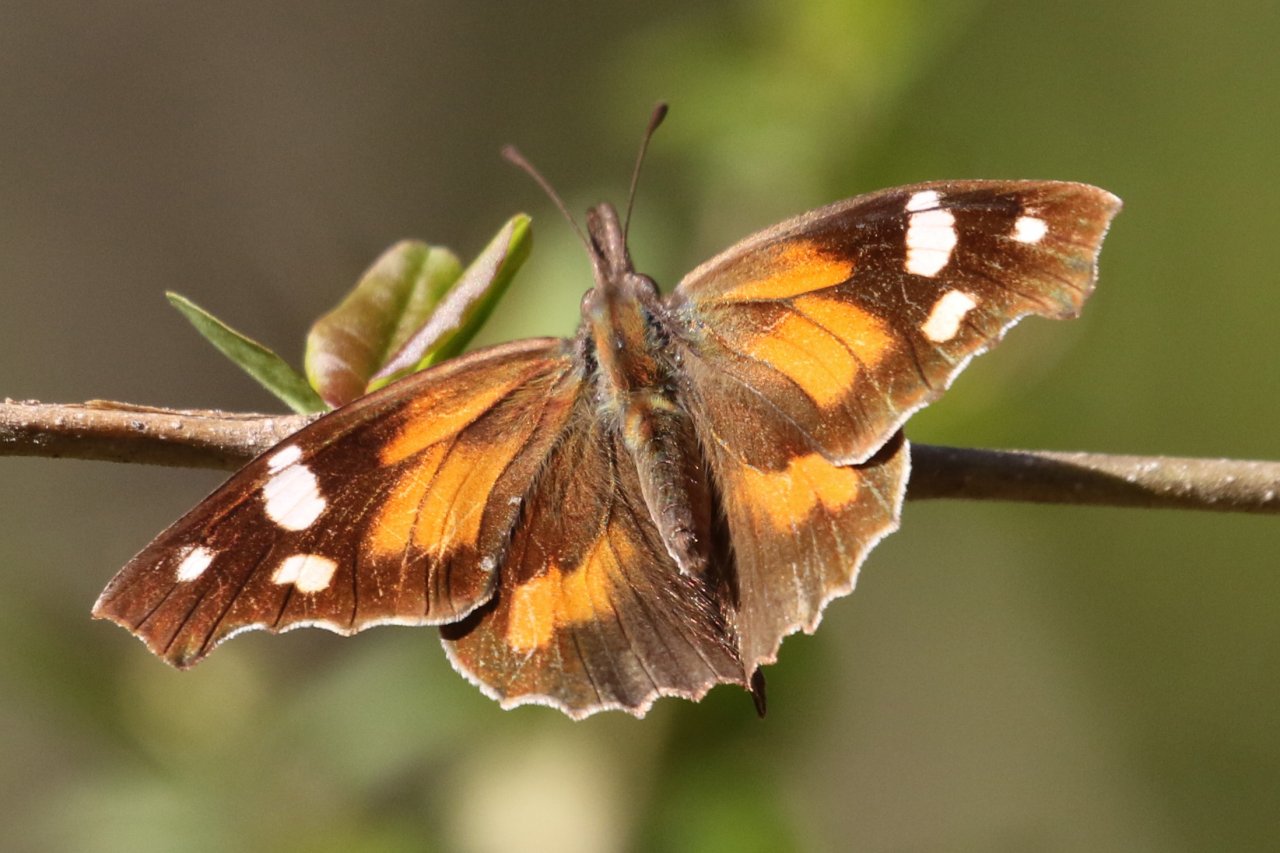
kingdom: Animalia
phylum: Arthropoda
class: Insecta
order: Lepidoptera
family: Nymphalidae
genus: Libytheana
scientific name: Libytheana carinenta
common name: American Snout
